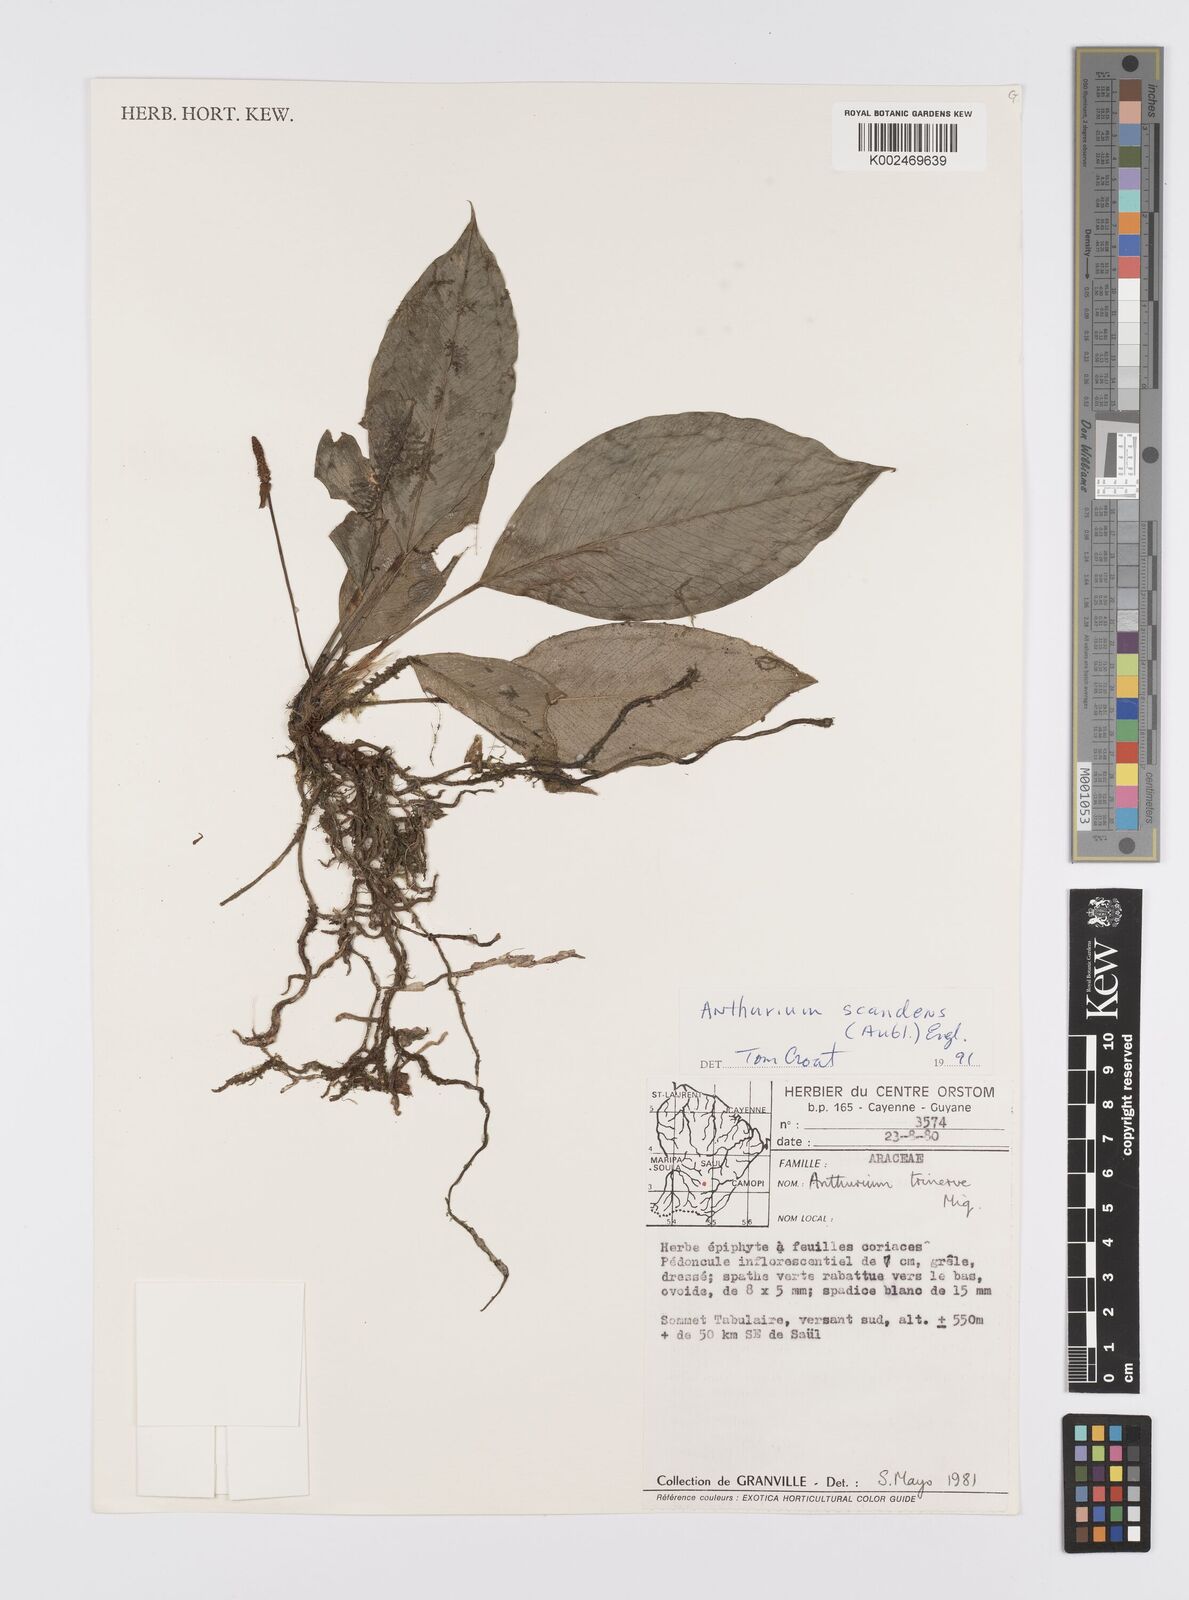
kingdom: Plantae
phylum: Tracheophyta
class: Liliopsida
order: Alismatales
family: Araceae
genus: Anthurium
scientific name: Anthurium scandens
